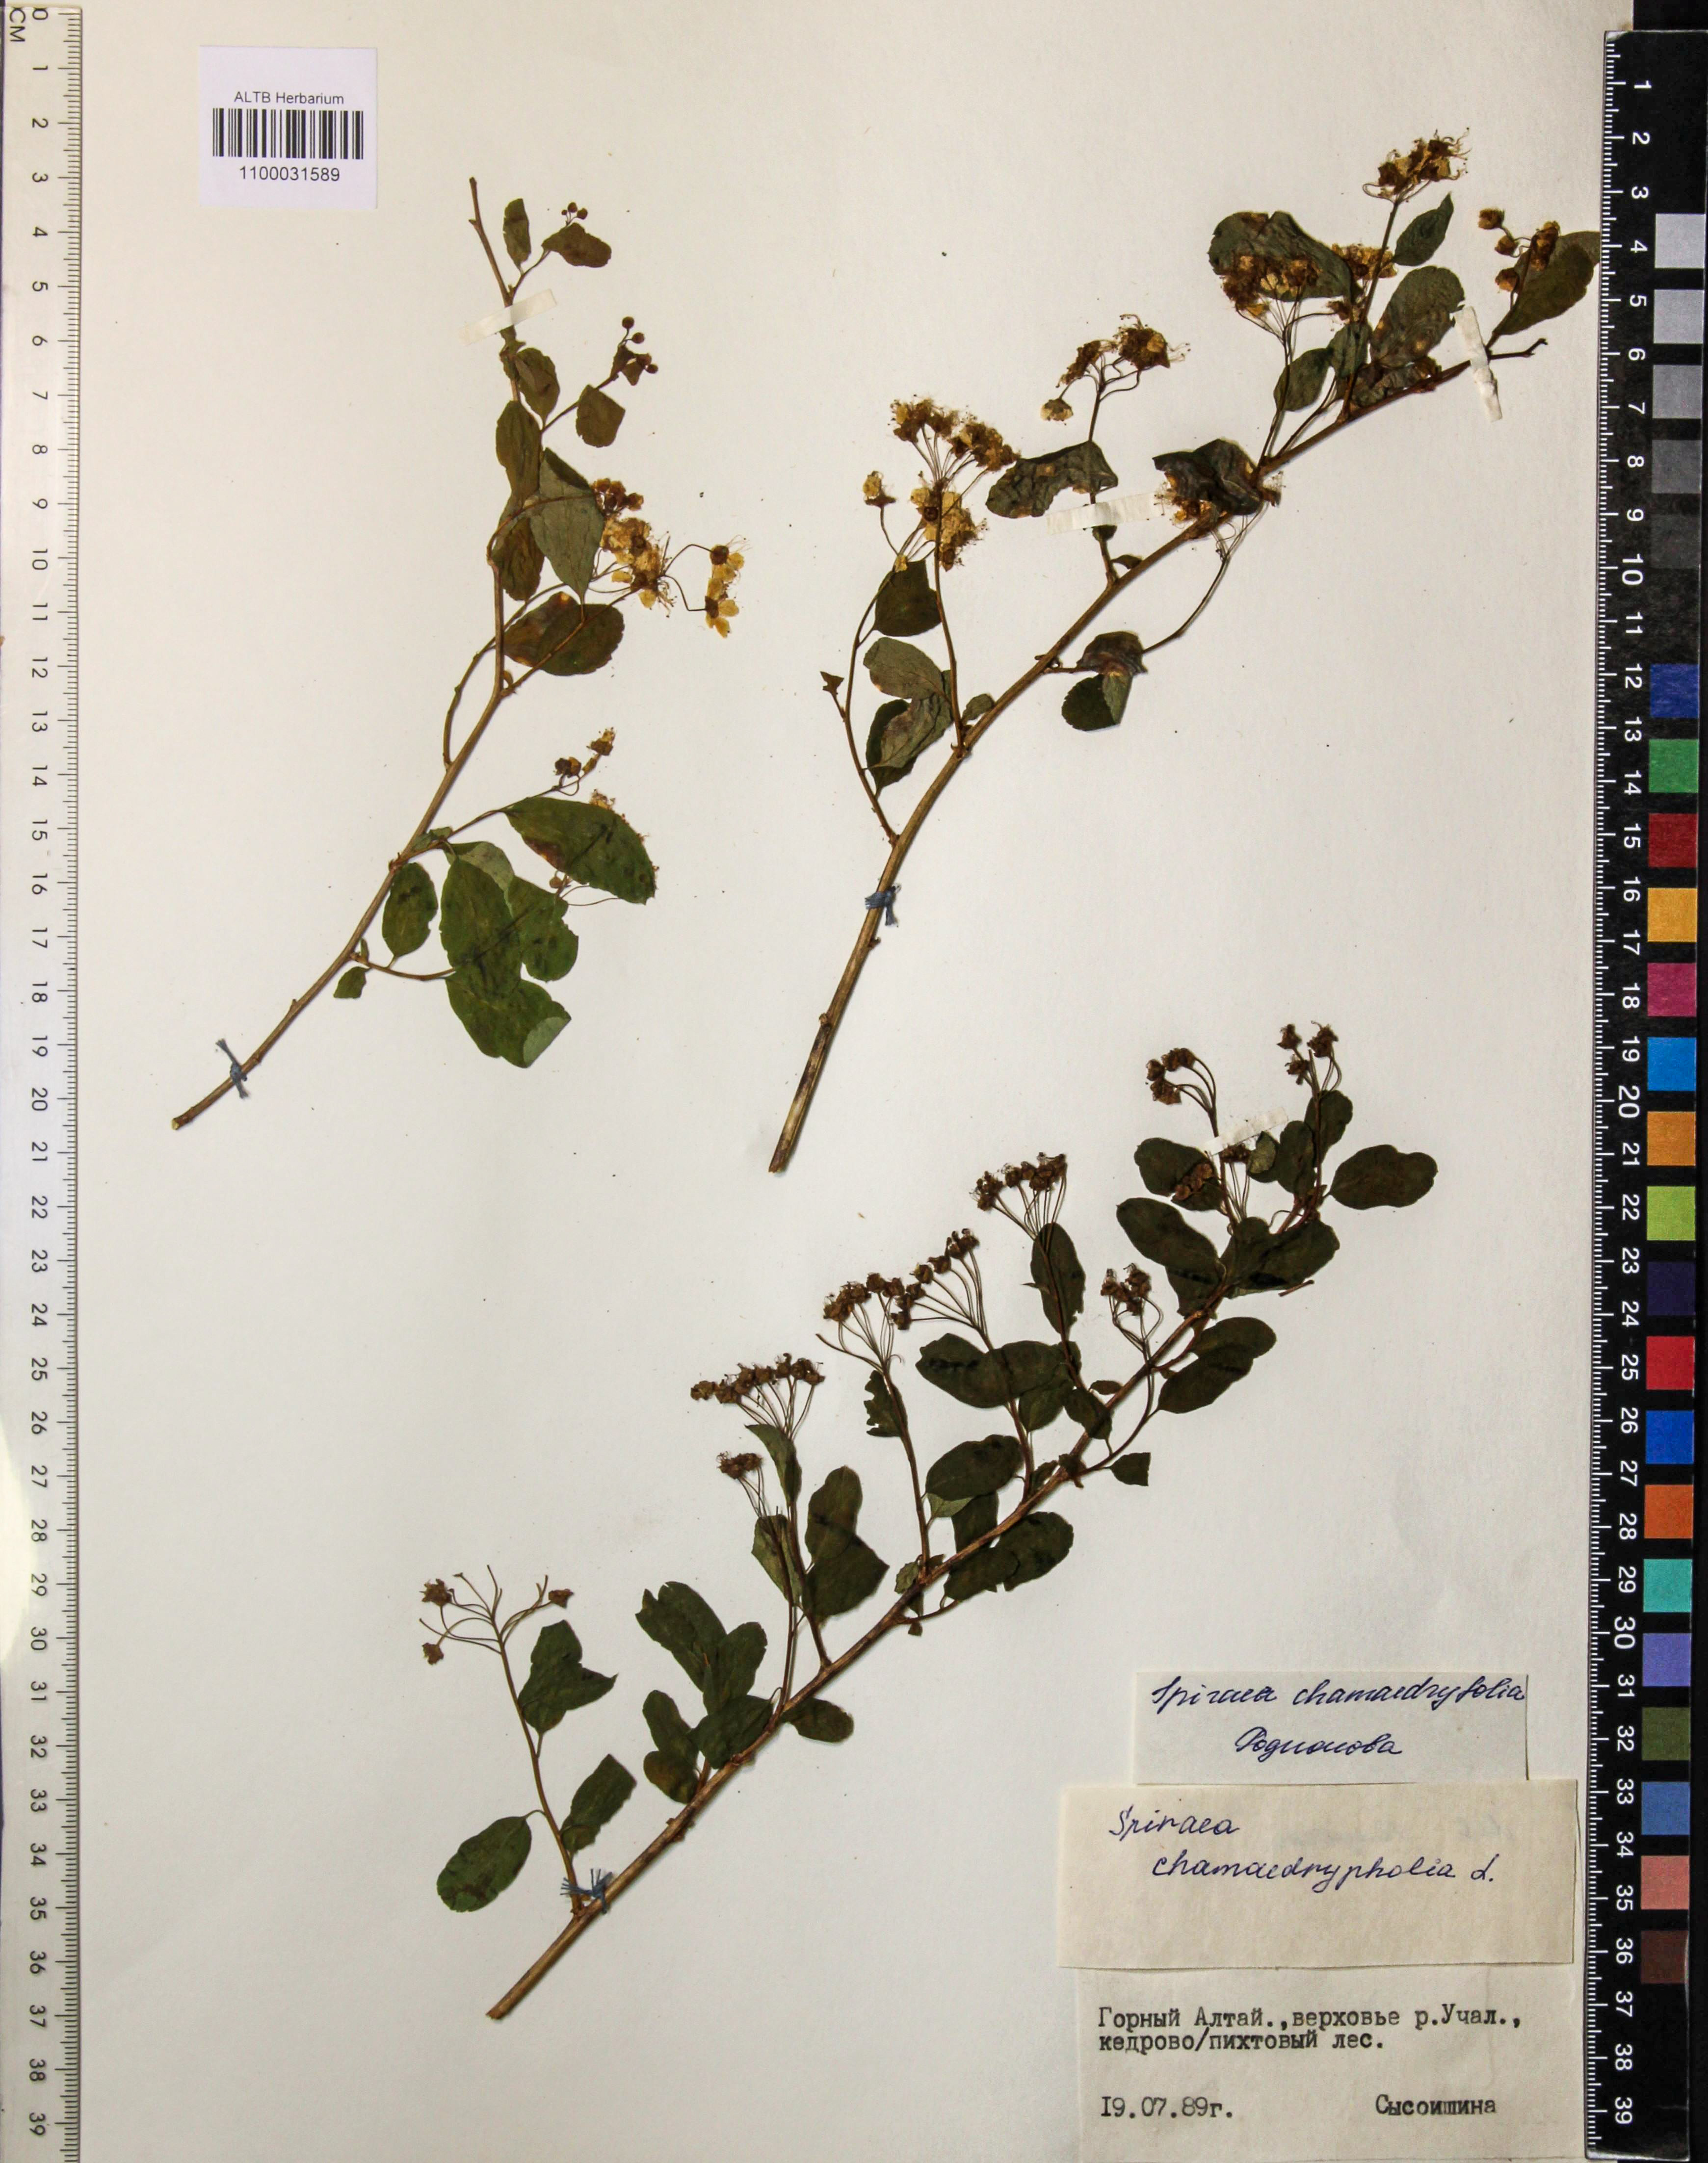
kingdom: Plantae
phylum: Tracheophyta
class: Magnoliopsida
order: Rosales
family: Rosaceae
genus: Spiraea
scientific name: Spiraea chamaedryfolia
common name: Elm-leaved spiraea
